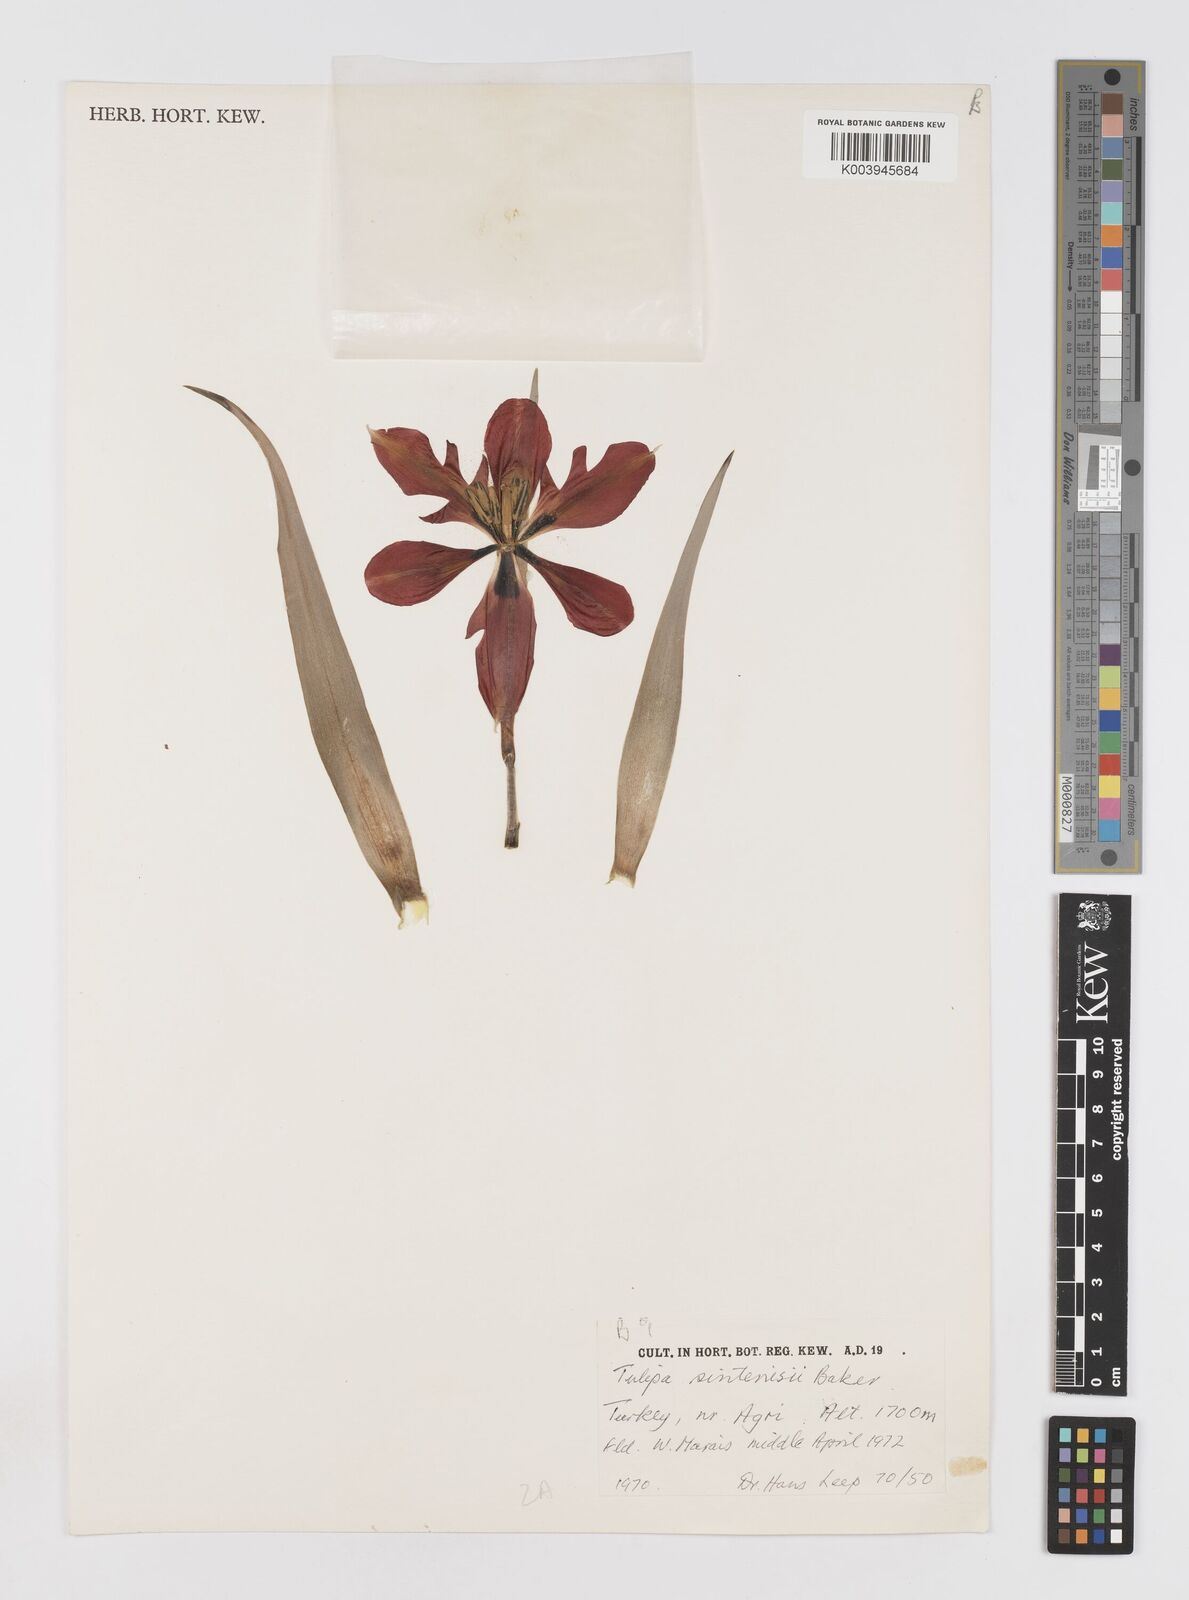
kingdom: Plantae
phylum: Tracheophyta
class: Liliopsida
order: Liliales
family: Liliaceae
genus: Tulipa
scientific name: Tulipa aleppensis
